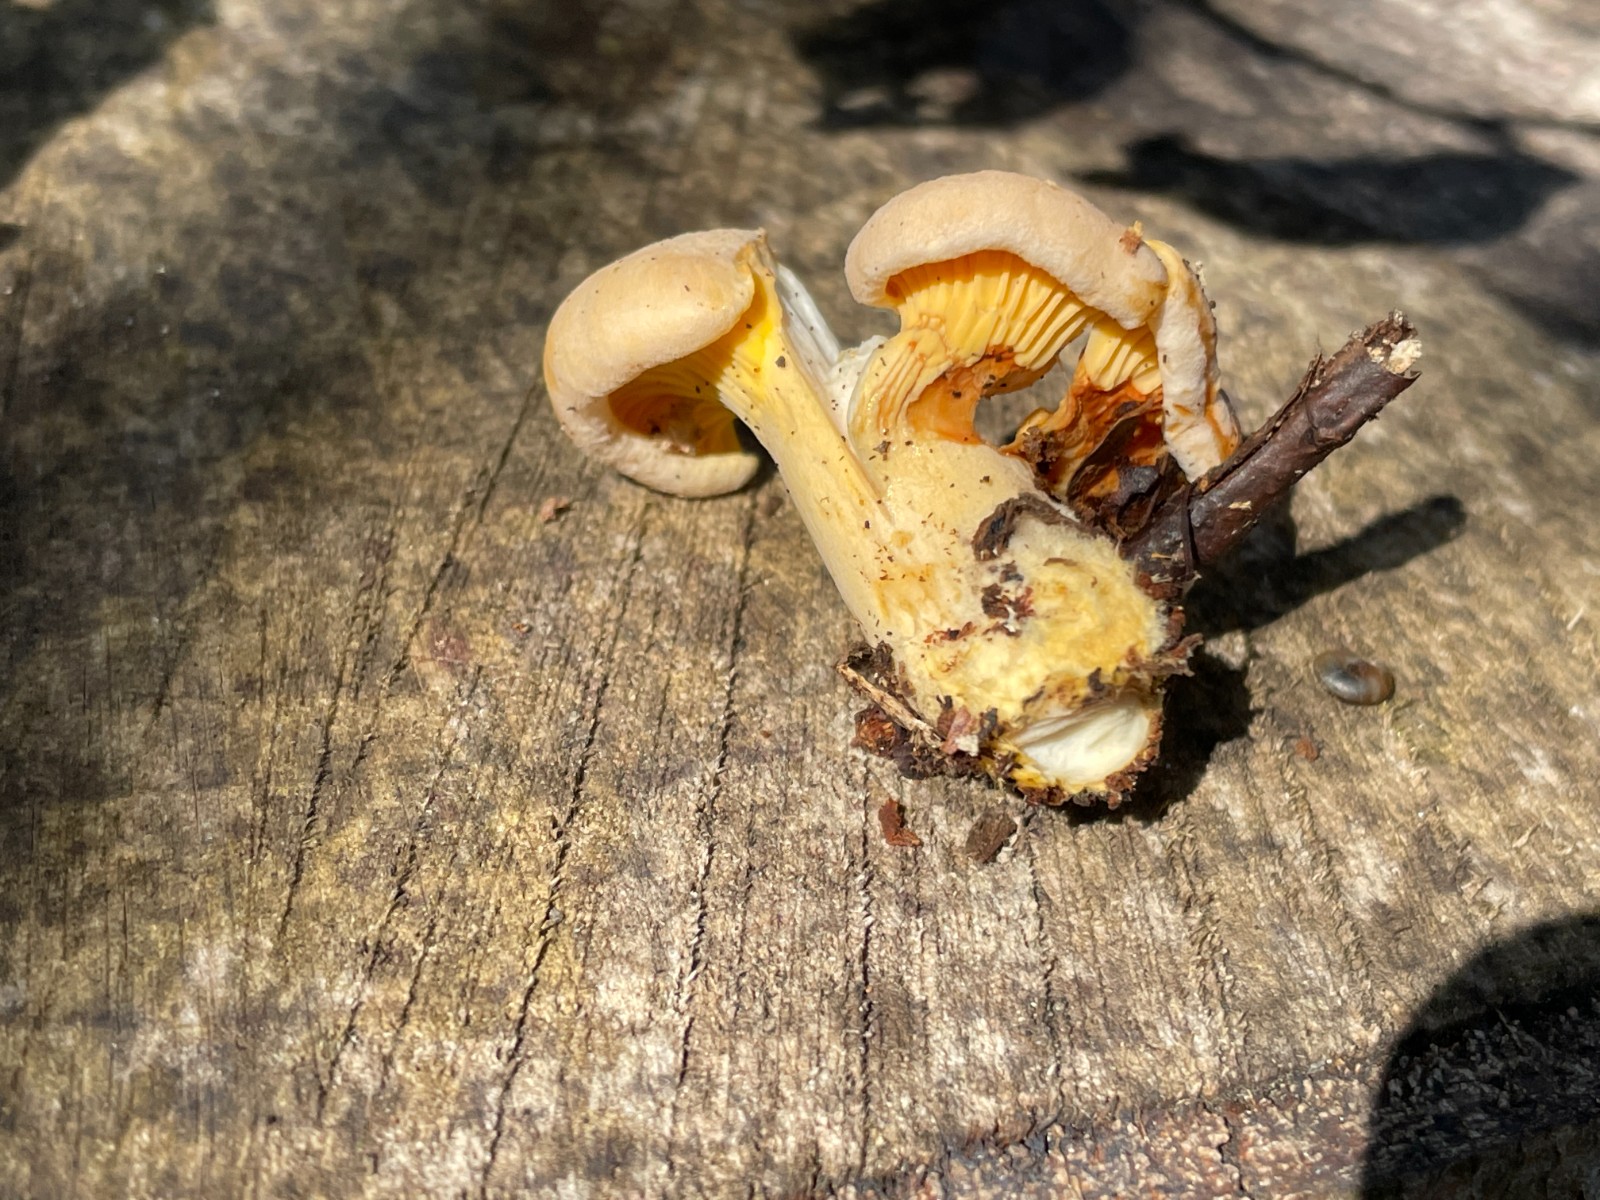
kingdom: Fungi
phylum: Basidiomycota
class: Agaricomycetes
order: Cantharellales
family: Hydnaceae
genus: Cantharellus
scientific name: Cantharellus pallens
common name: bleg kantarel
